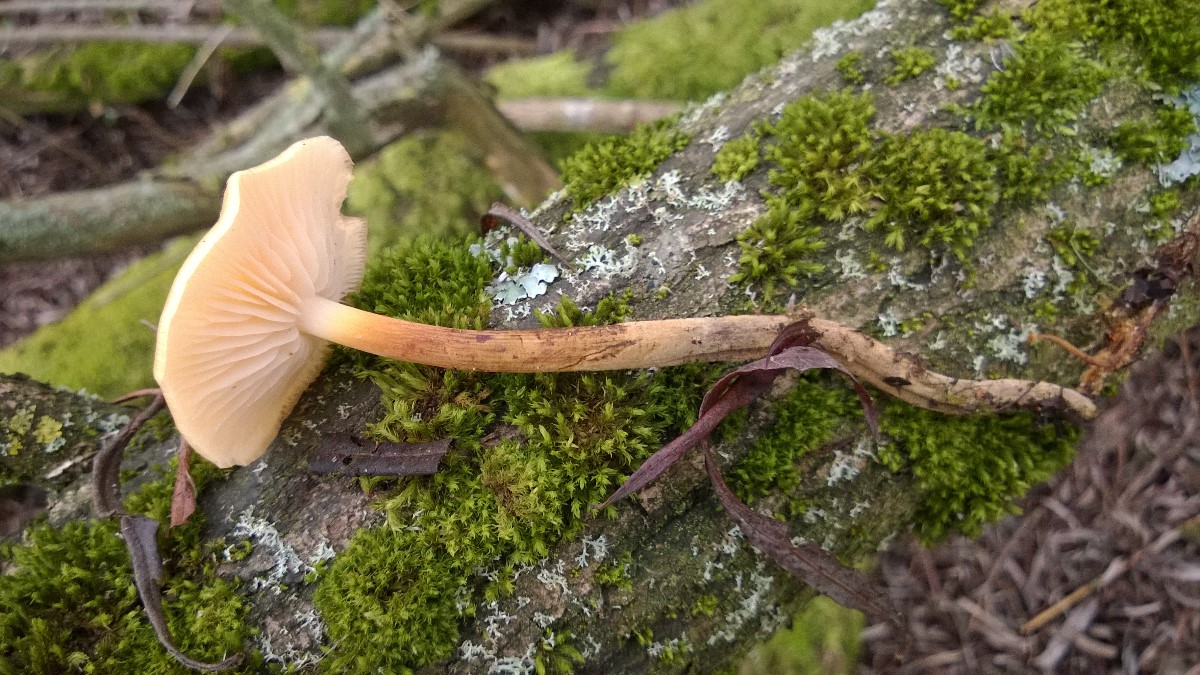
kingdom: Fungi
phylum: Basidiomycota
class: Agaricomycetes
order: Agaricales
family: Physalacriaceae
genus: Flammulina
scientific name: Flammulina elastica
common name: pile-fløjlsfod
